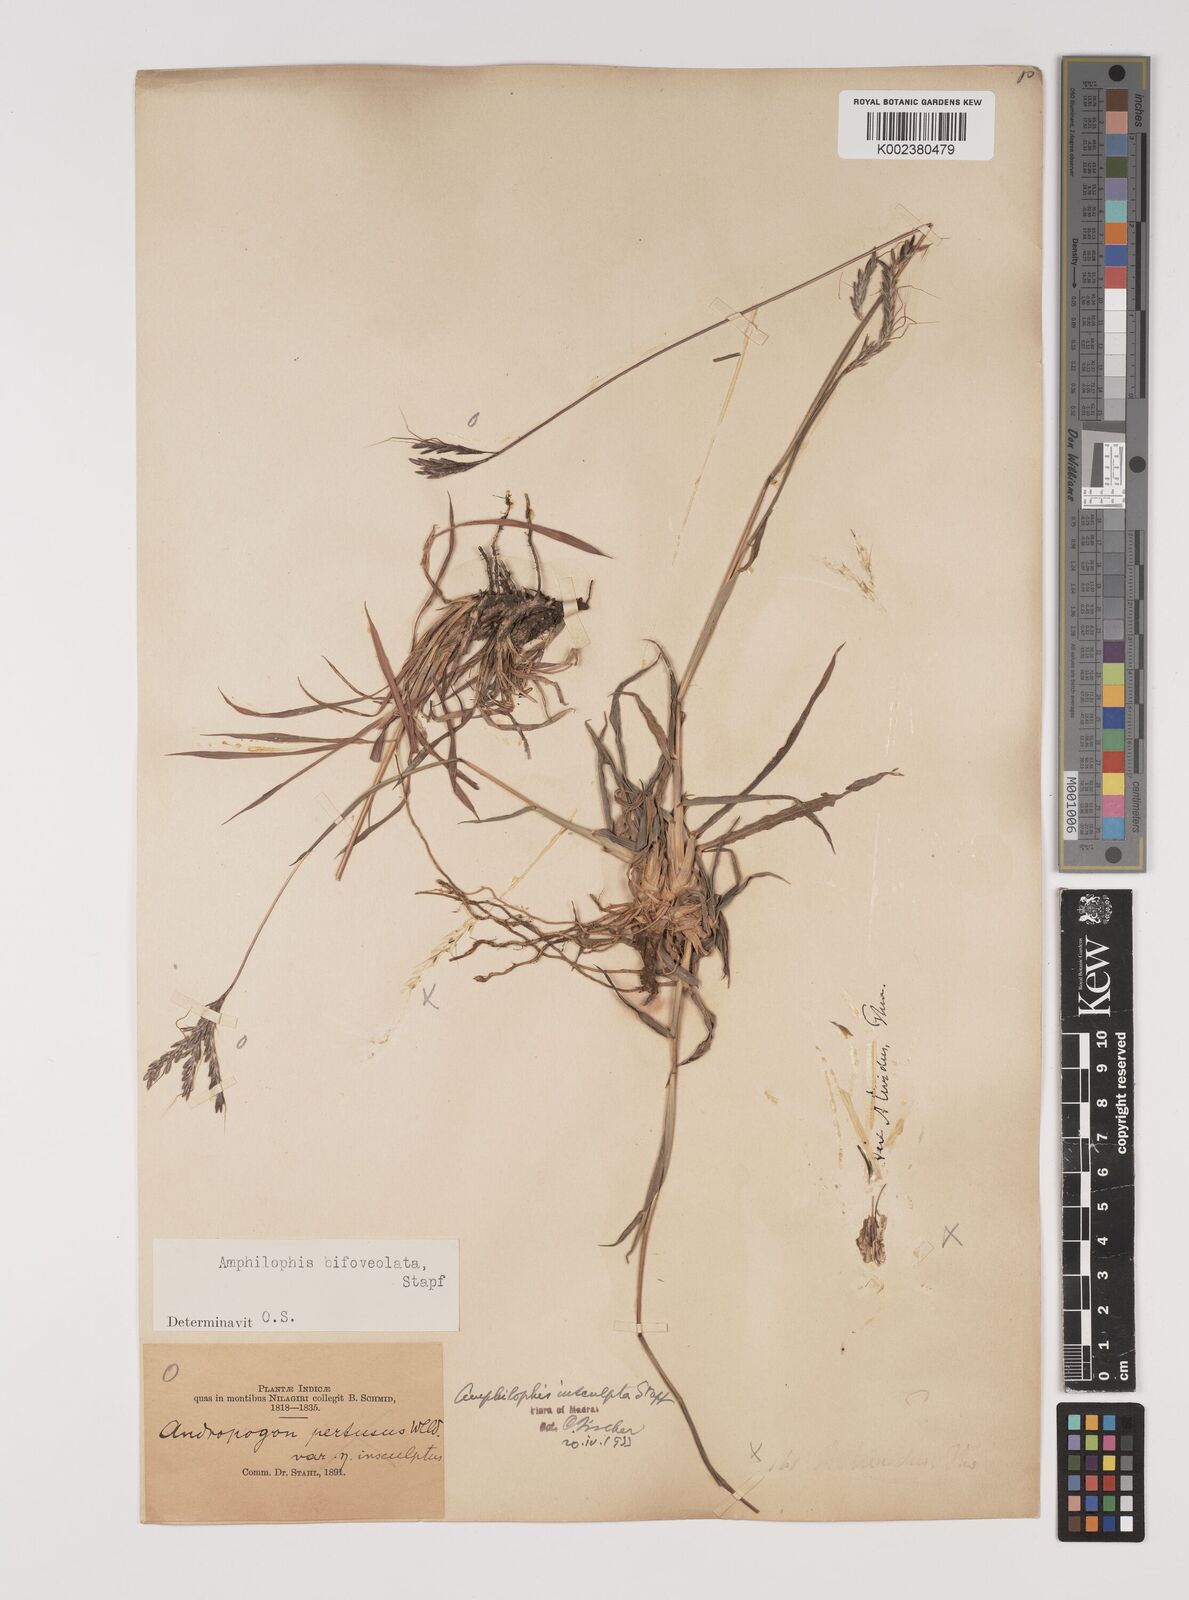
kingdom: Plantae
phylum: Tracheophyta
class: Liliopsida
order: Poales
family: Poaceae
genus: Bothriochloa
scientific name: Bothriochloa insculpta
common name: Creeping-bluegrass
